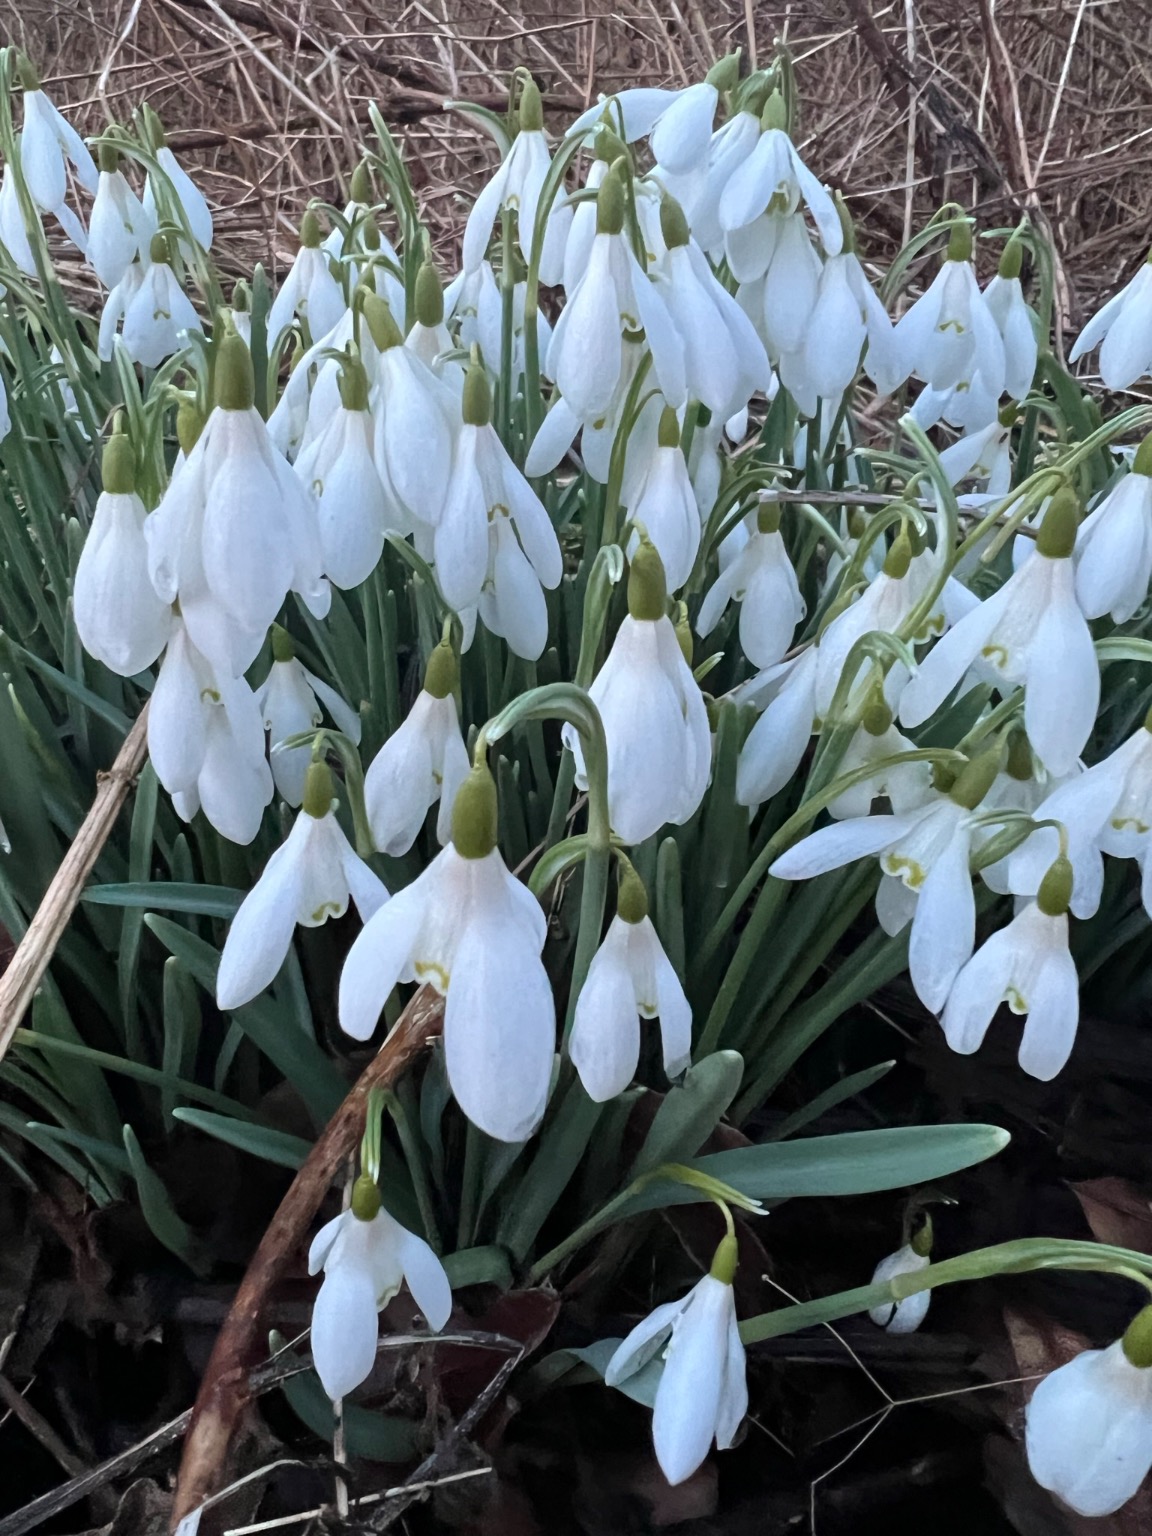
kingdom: Plantae
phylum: Tracheophyta
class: Liliopsida
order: Asparagales
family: Amaryllidaceae
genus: Galanthus
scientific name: Galanthus nivalis
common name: Vintergæk
